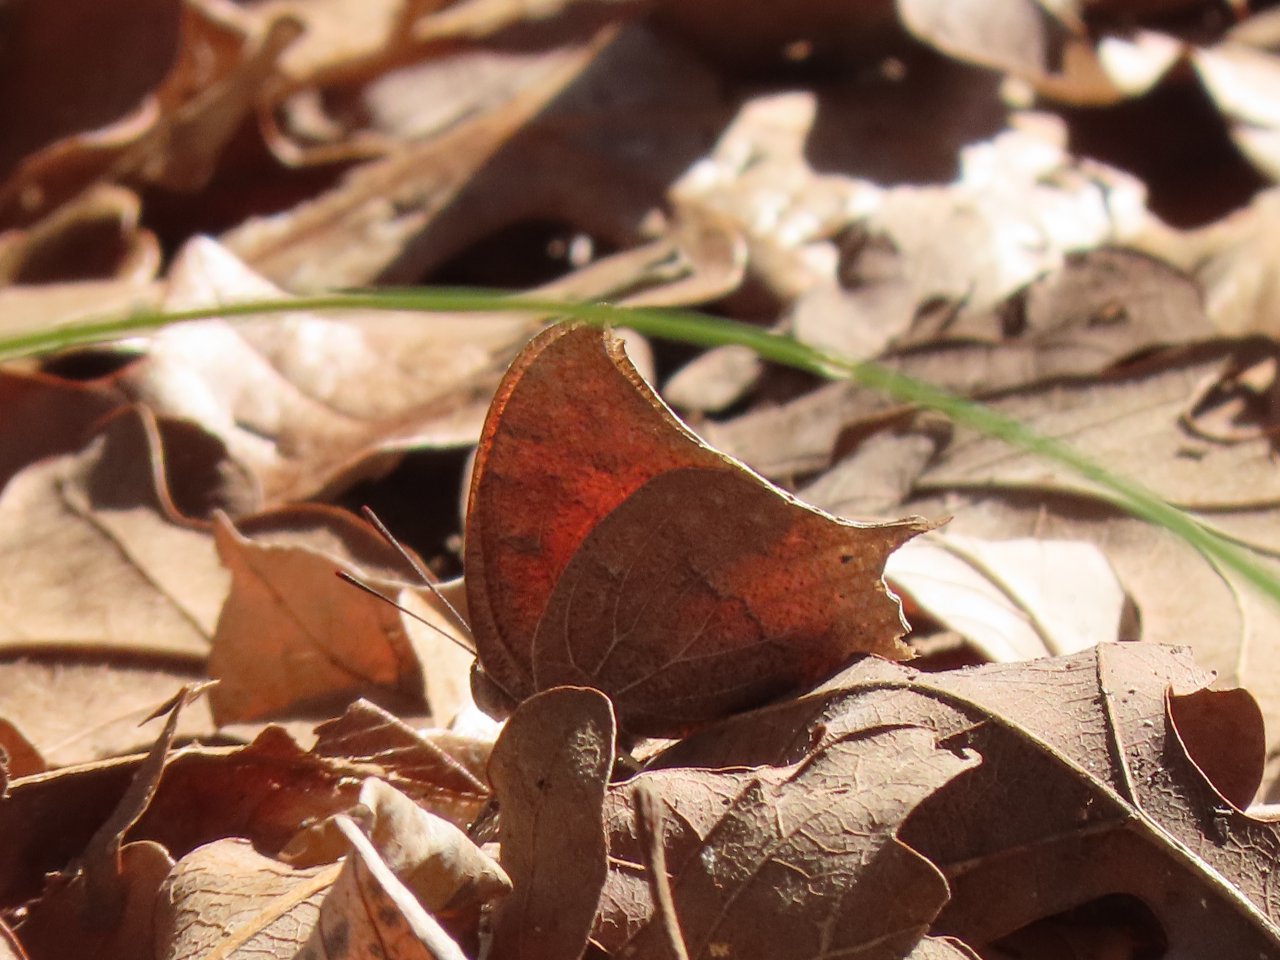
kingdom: Animalia
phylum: Arthropoda
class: Insecta
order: Lepidoptera
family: Nymphalidae
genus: Anaea
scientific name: Anaea andria
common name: Goatweed Leafwing
